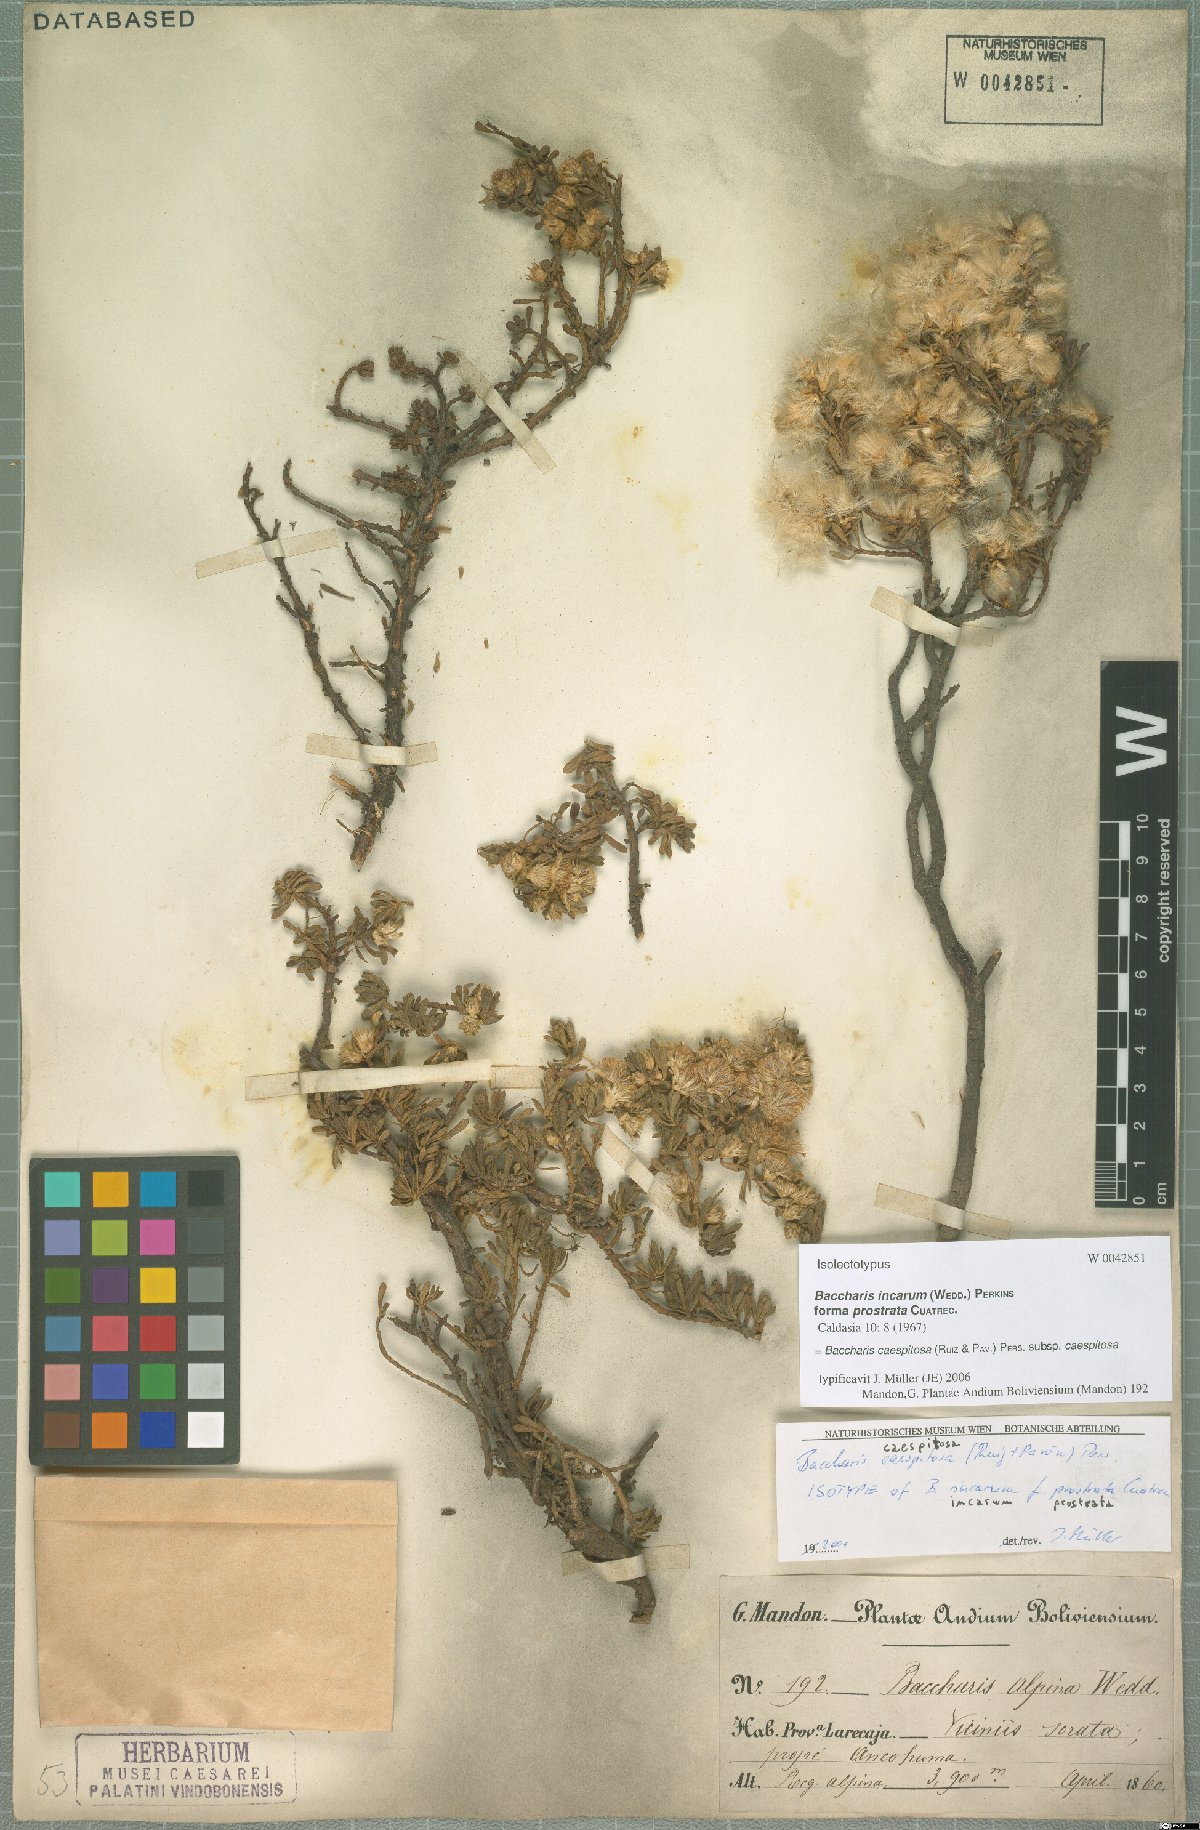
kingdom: Plantae
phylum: Tracheophyta
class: Magnoliopsida
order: Asterales
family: Asteraceae
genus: Baccharis
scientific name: Baccharis caespitosa
